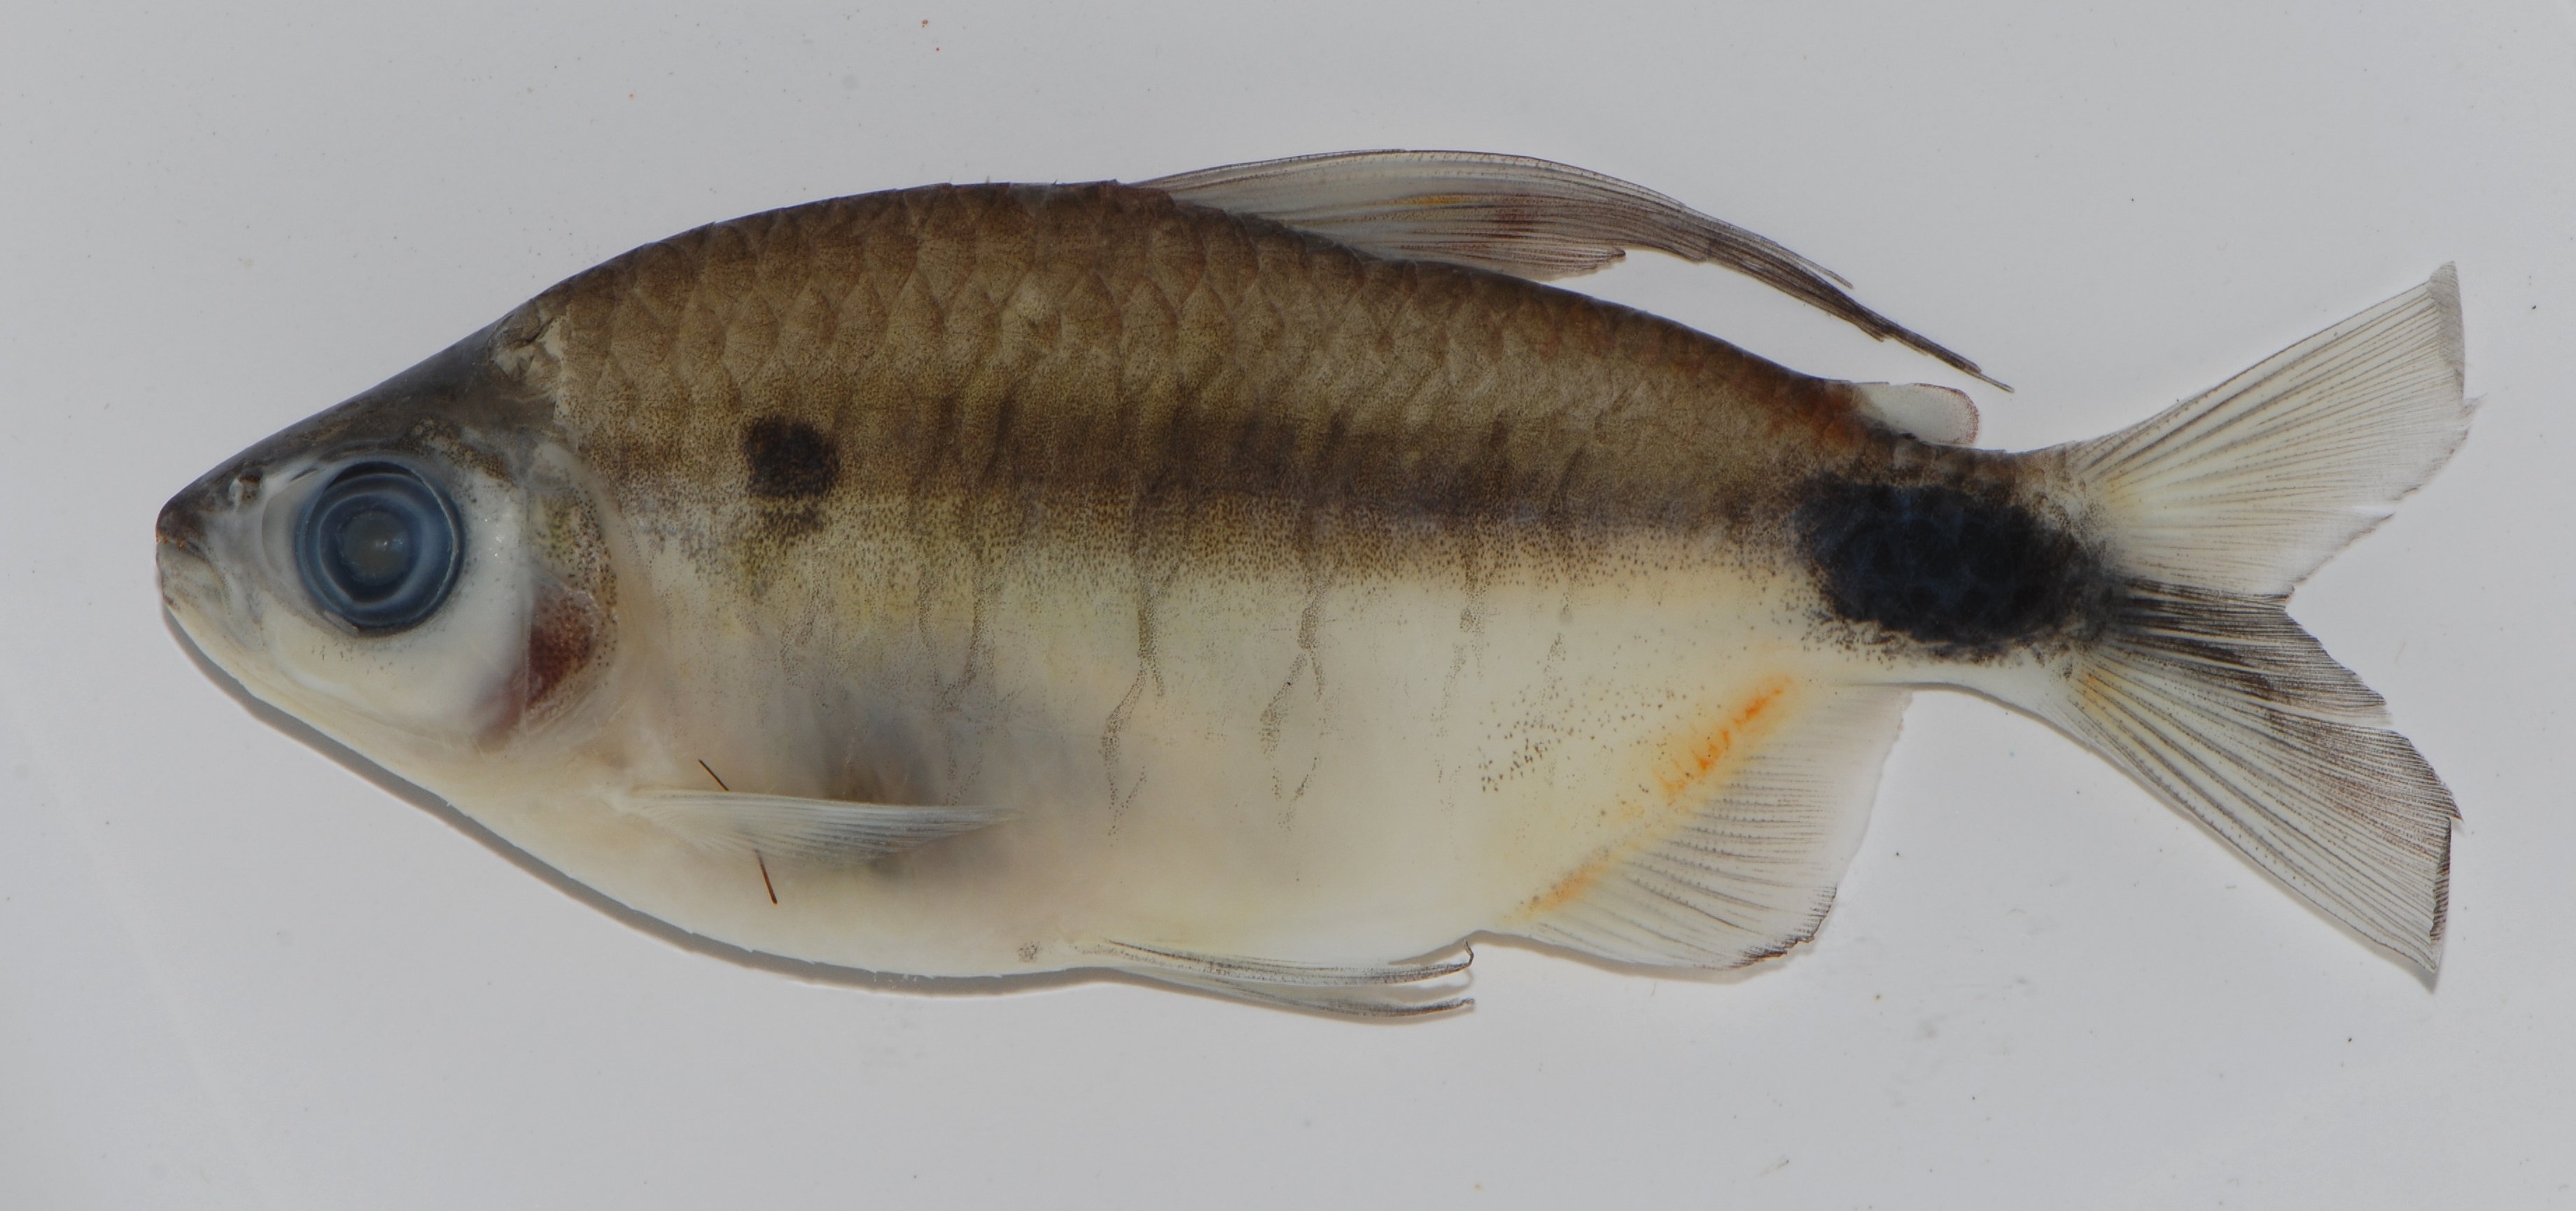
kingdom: Animalia
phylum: Chordata
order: Characiformes
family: Alestidae
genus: Alestopetersius
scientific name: Alestopetersius hilgendorfi
